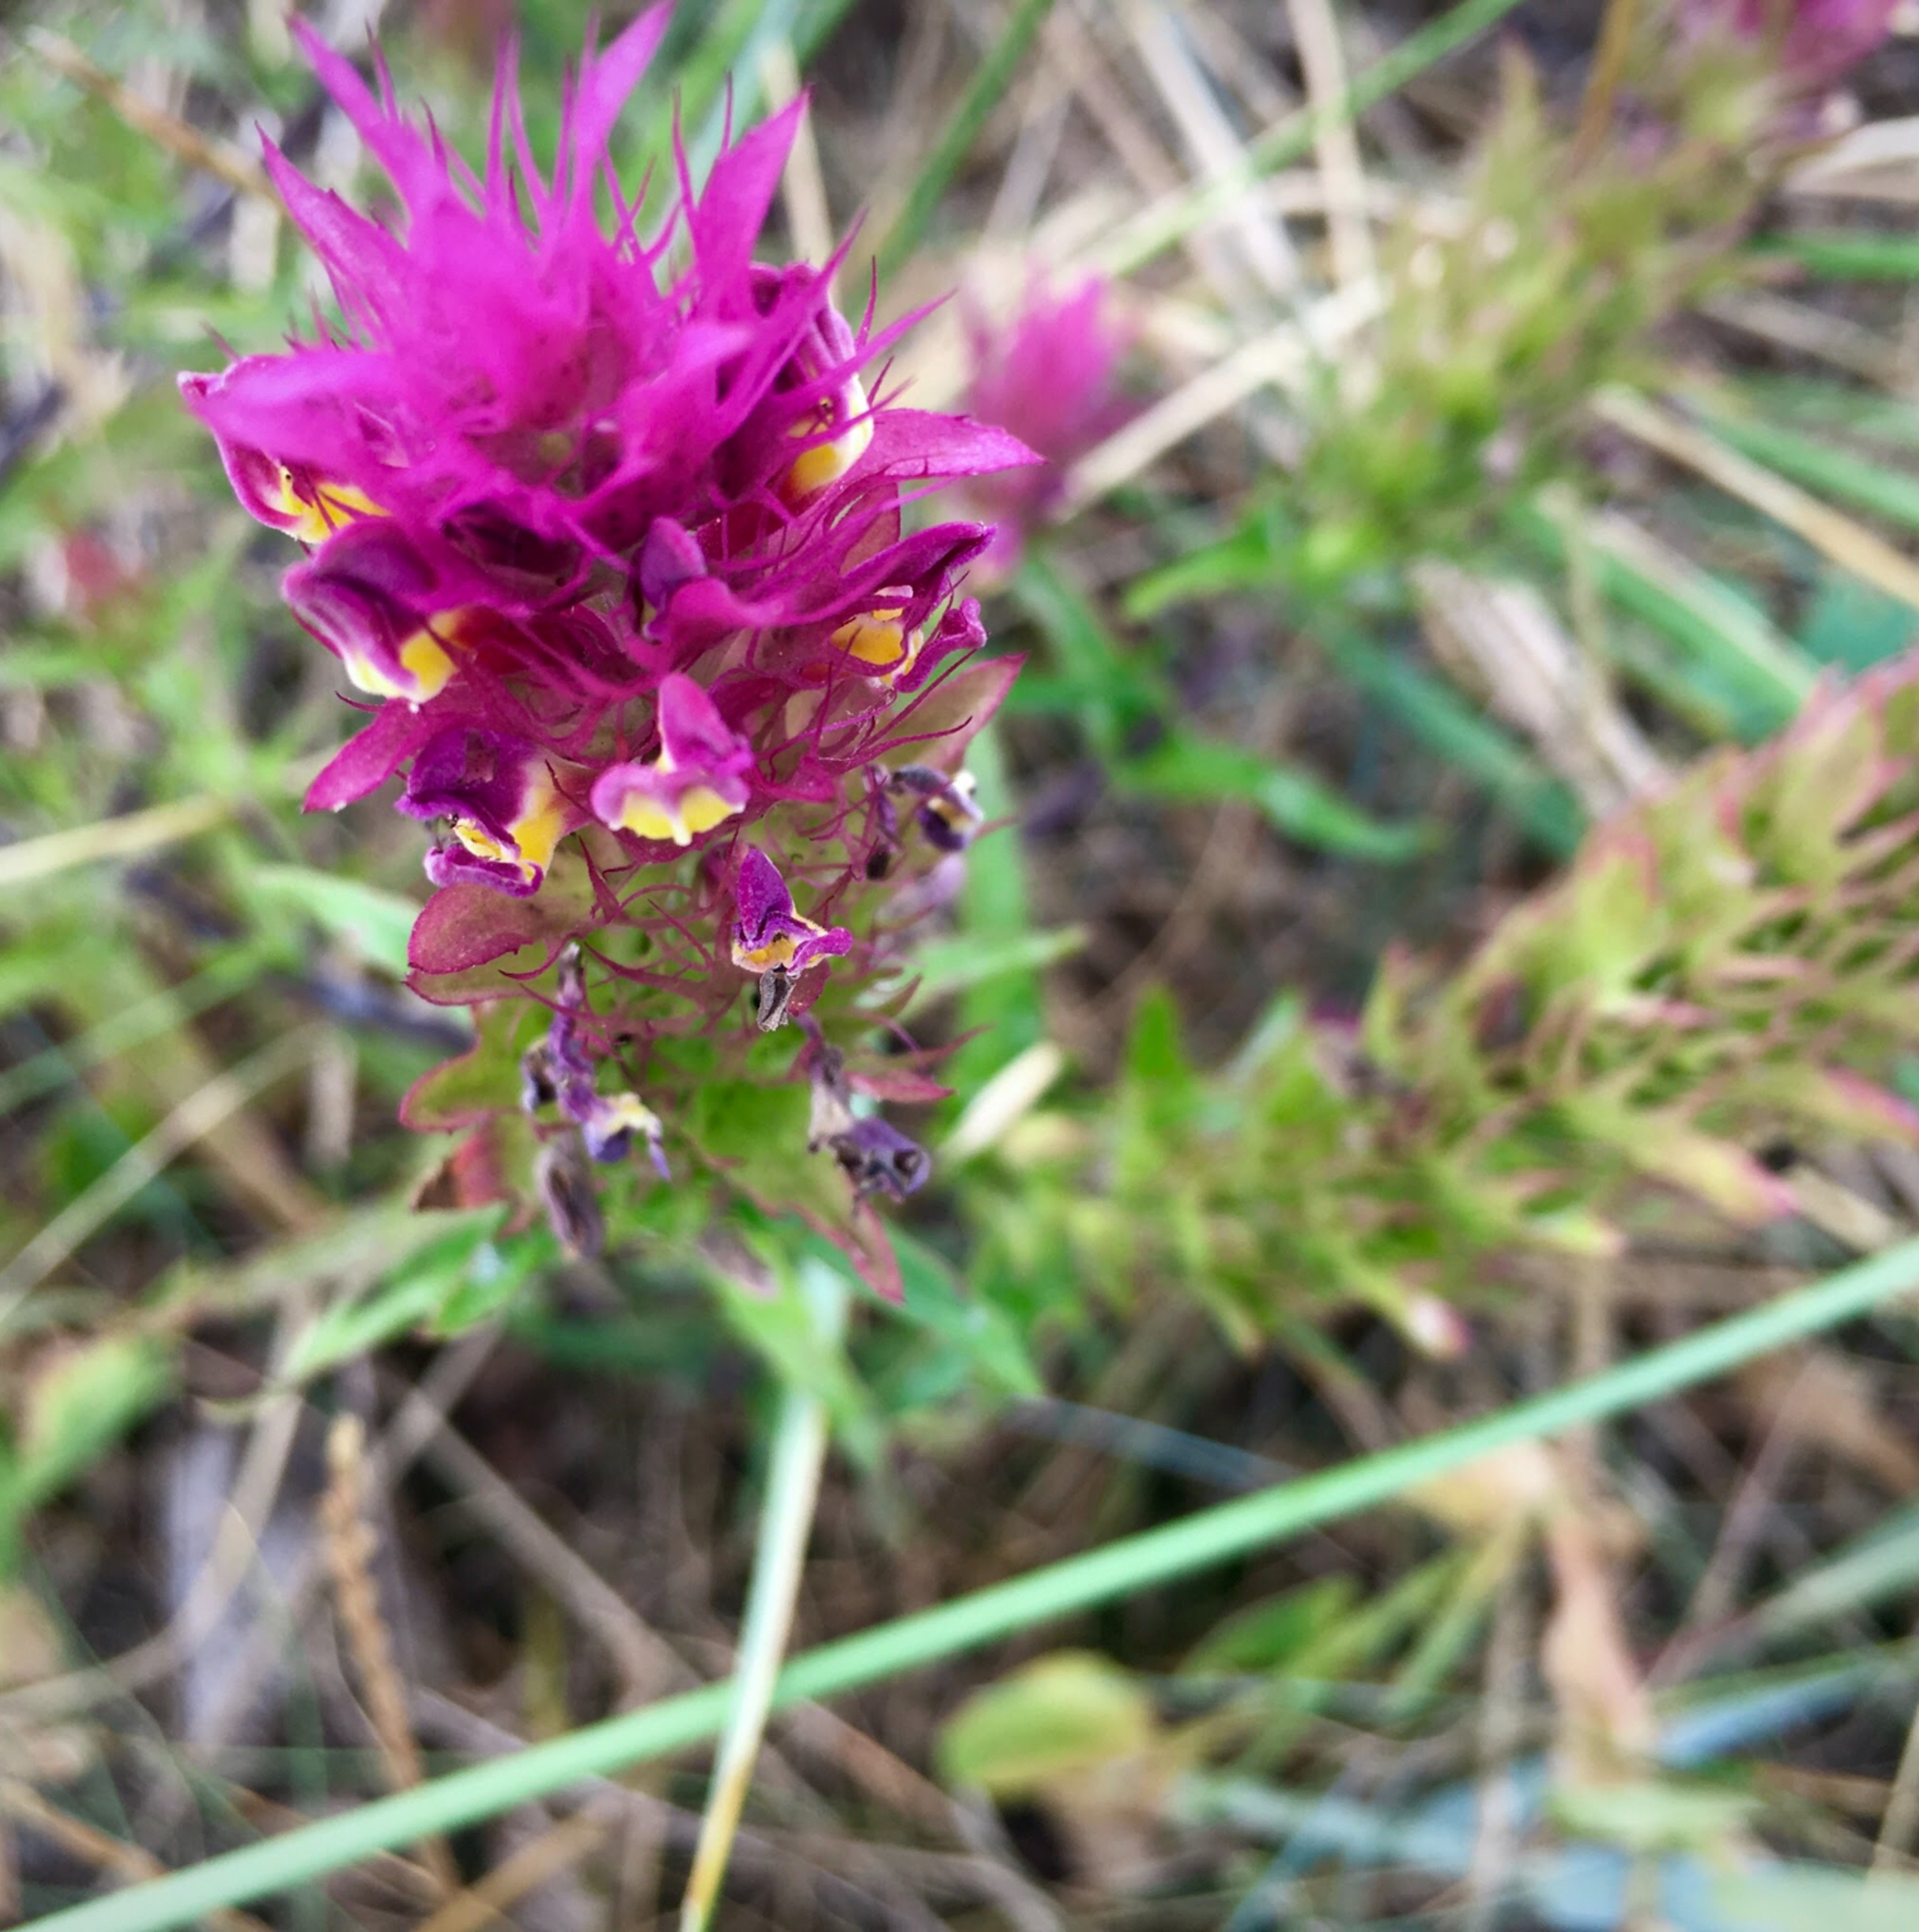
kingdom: Plantae
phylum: Tracheophyta
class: Magnoliopsida
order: Lamiales
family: Orobanchaceae
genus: Melampyrum
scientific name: Melampyrum arvense
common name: Ager-kohvede
